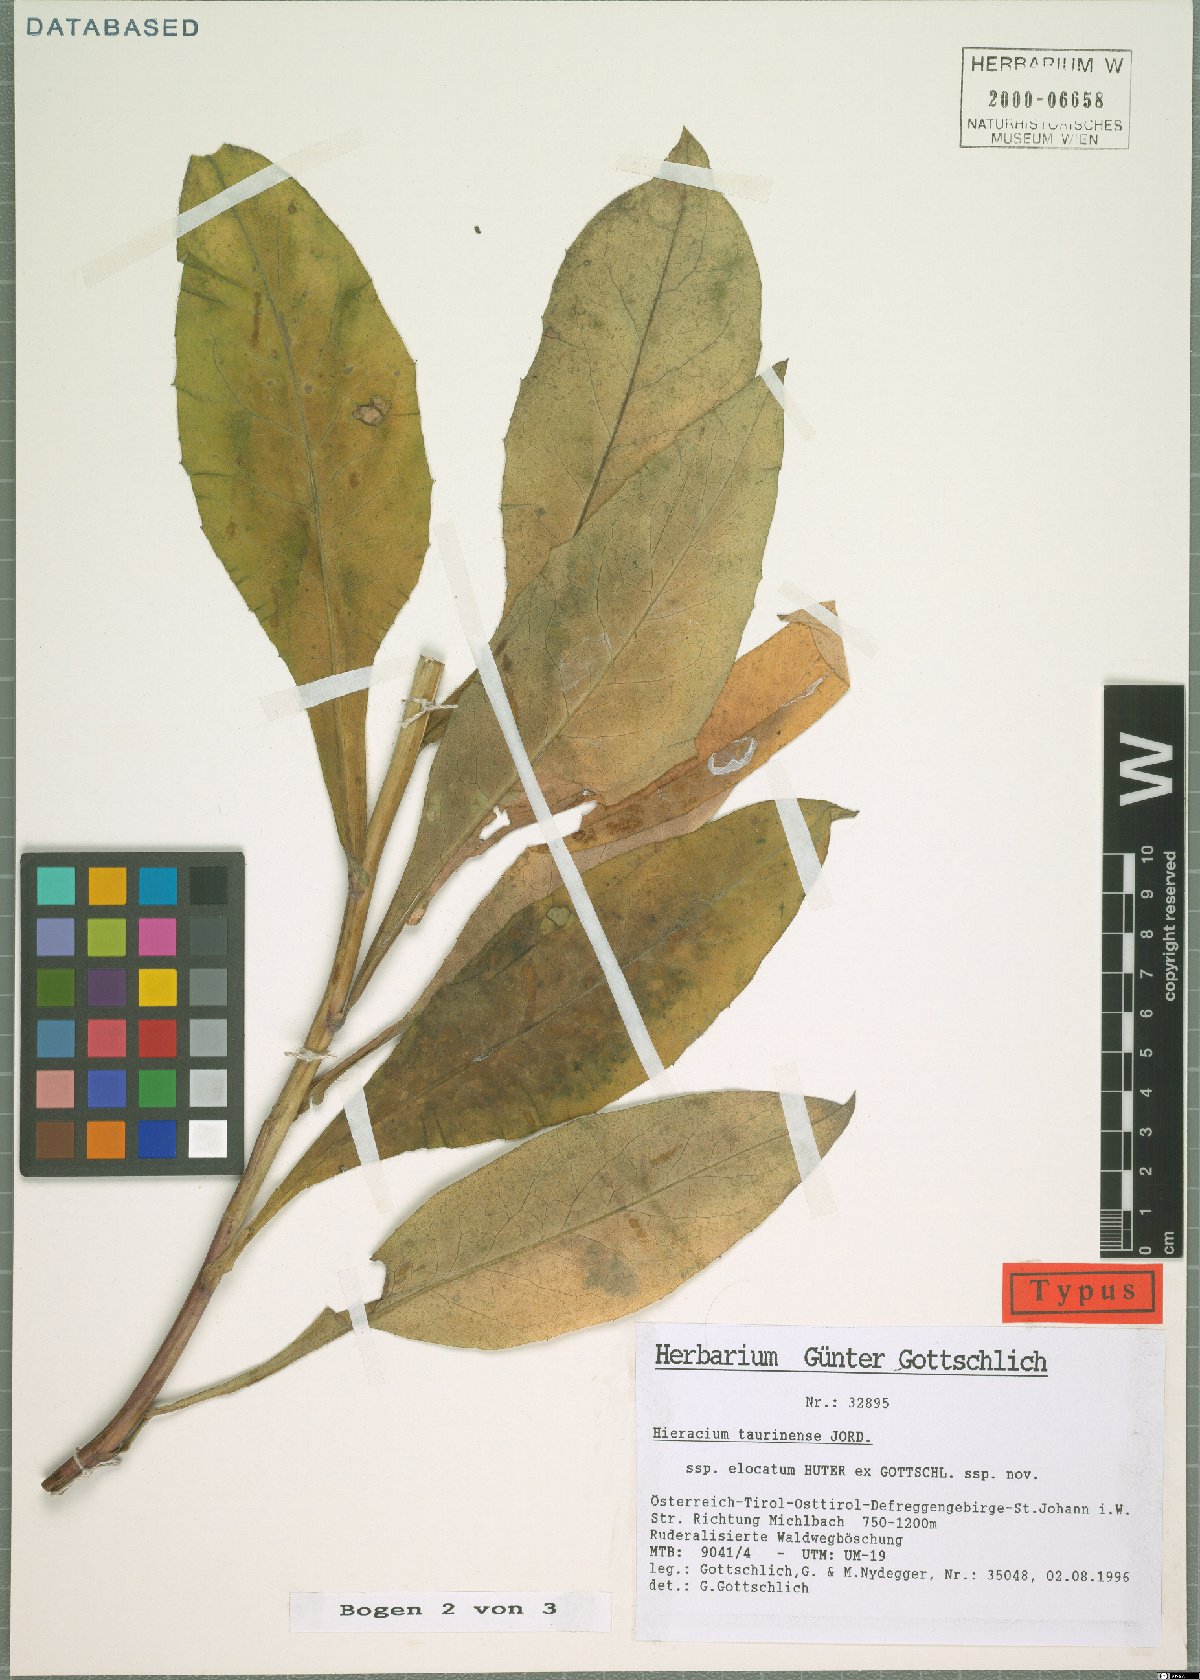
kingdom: Plantae
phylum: Tracheophyta
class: Magnoliopsida
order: Asterales
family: Asteraceae
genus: Hieracium
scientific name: Hieracium symphytaceum
